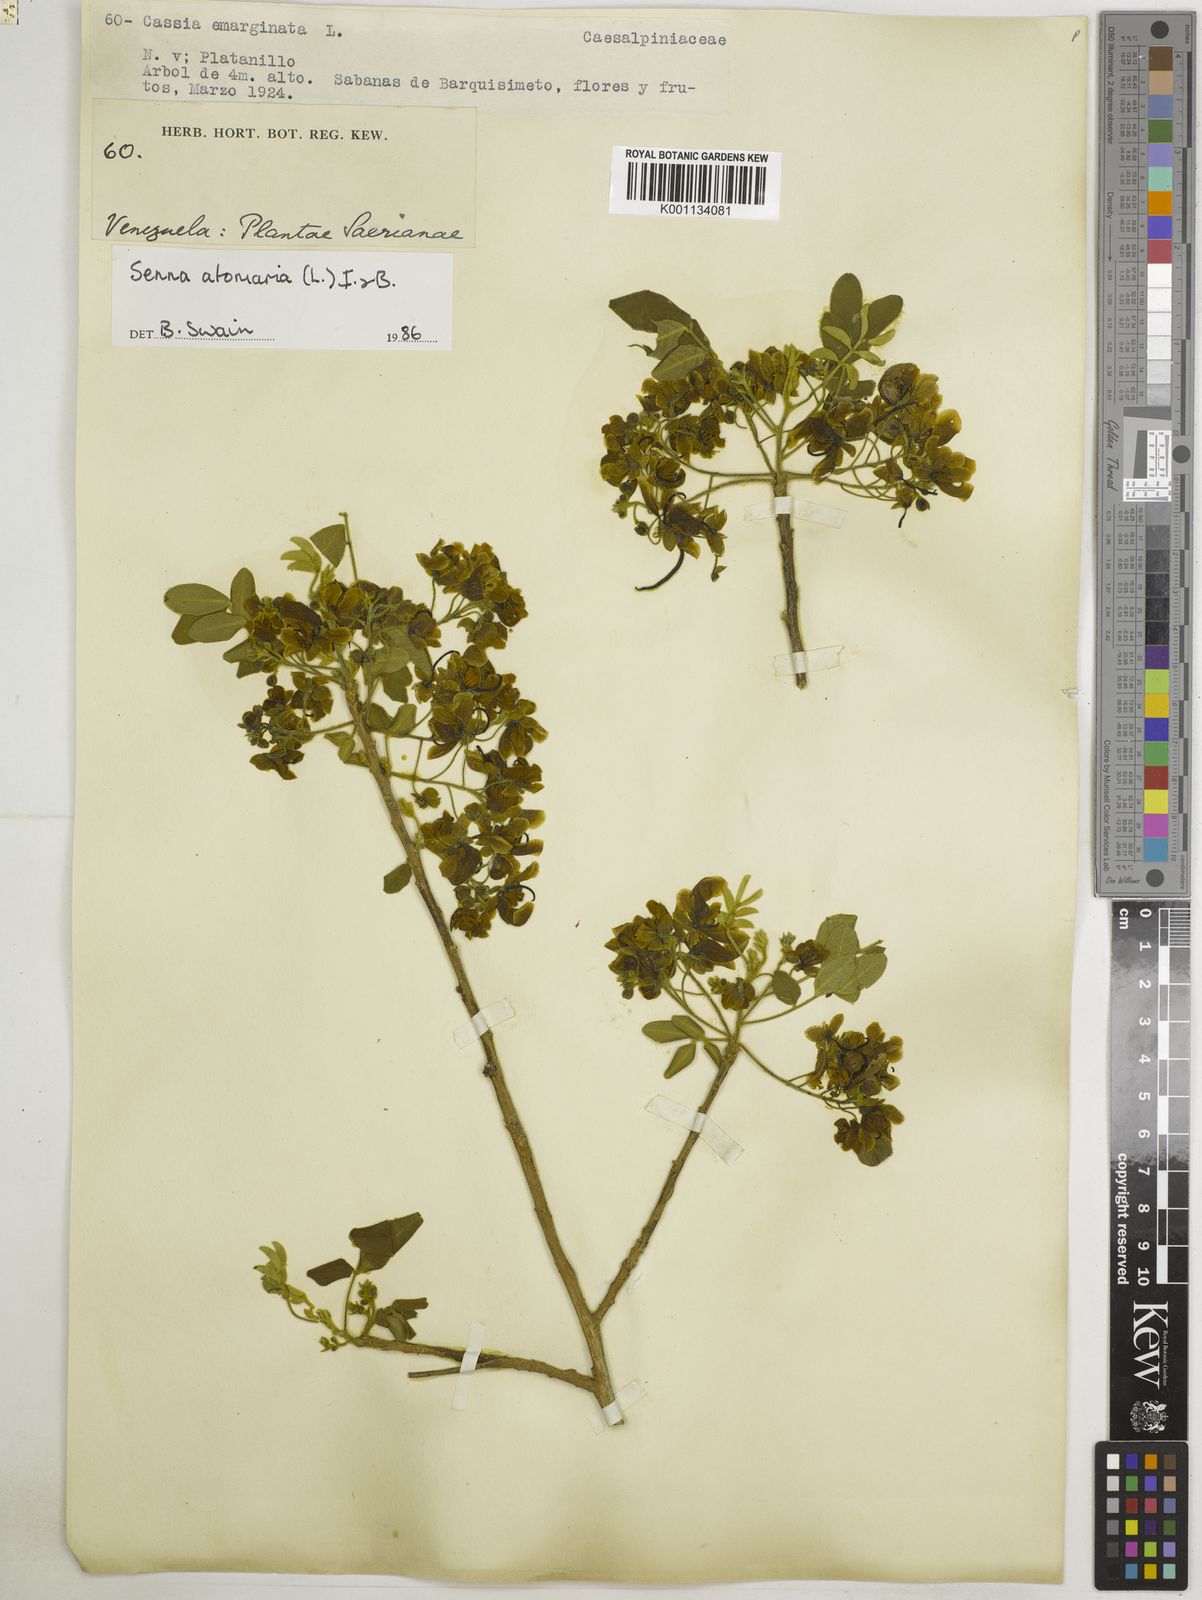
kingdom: Plantae
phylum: Tracheophyta
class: Magnoliopsida
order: Fabales
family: Fabaceae
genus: Senna
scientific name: Senna atomaria
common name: Flor de san jose
